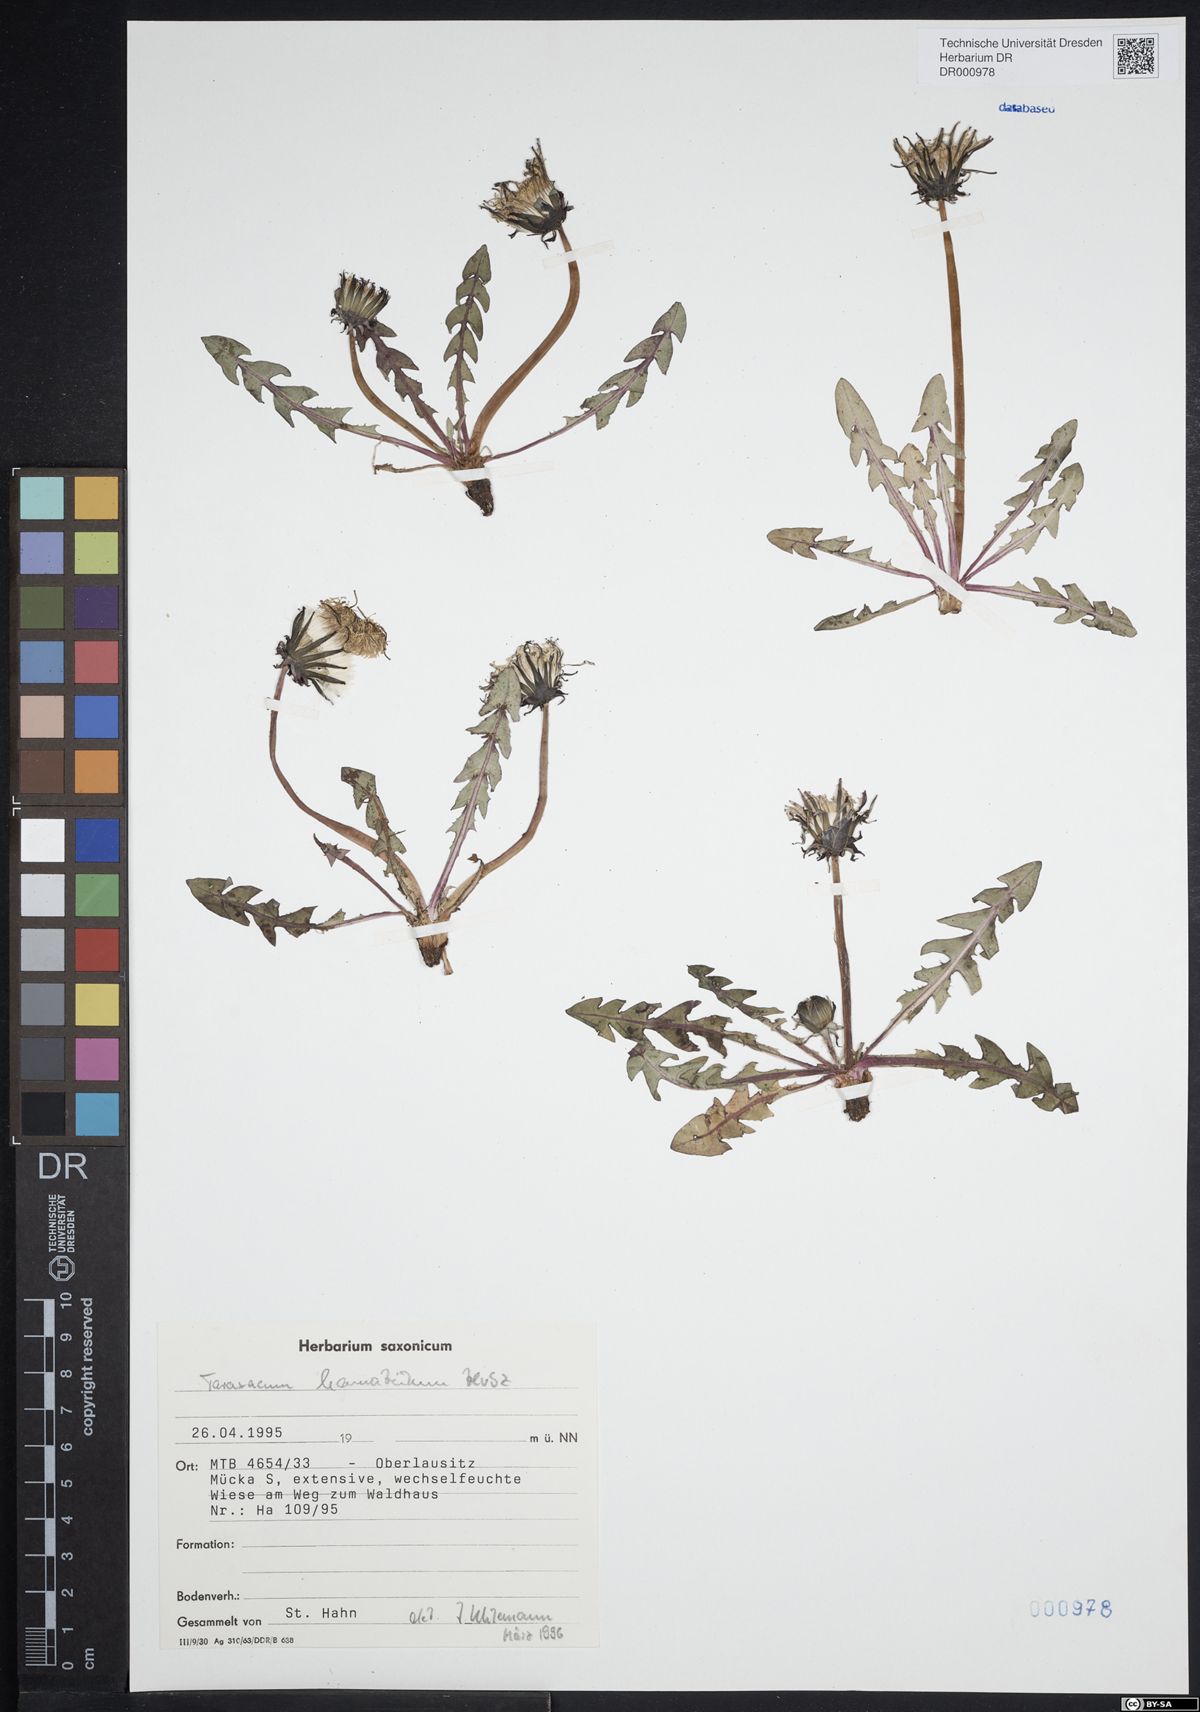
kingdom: Plantae
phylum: Tracheophyta
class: Magnoliopsida
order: Asterales
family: Asteraceae
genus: Taraxacum
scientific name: Taraxacum hamatulum
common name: Slender hook-lobed dandelion
